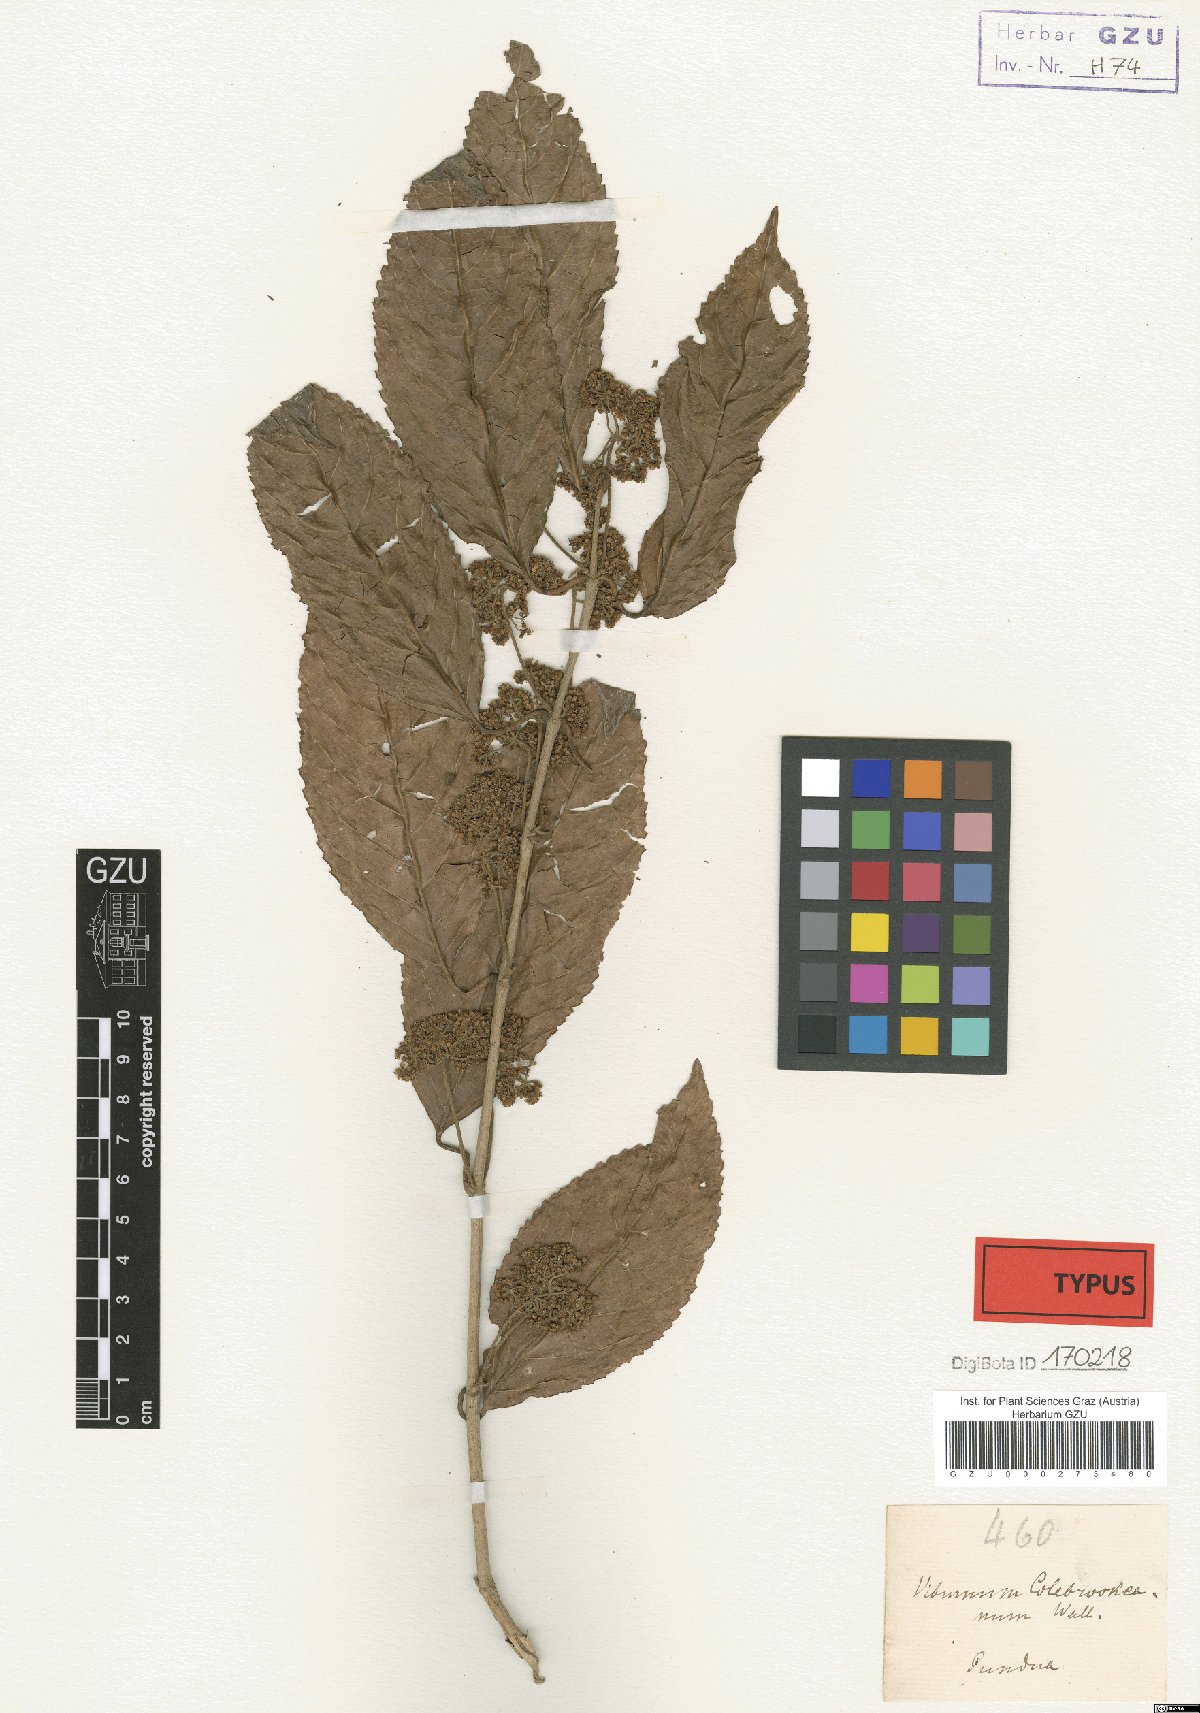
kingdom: Plantae
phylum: Tracheophyta
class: Magnoliopsida
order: Dipsacales
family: Viburnaceae
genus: Viburnum
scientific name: Viburnum colebrookeanum
